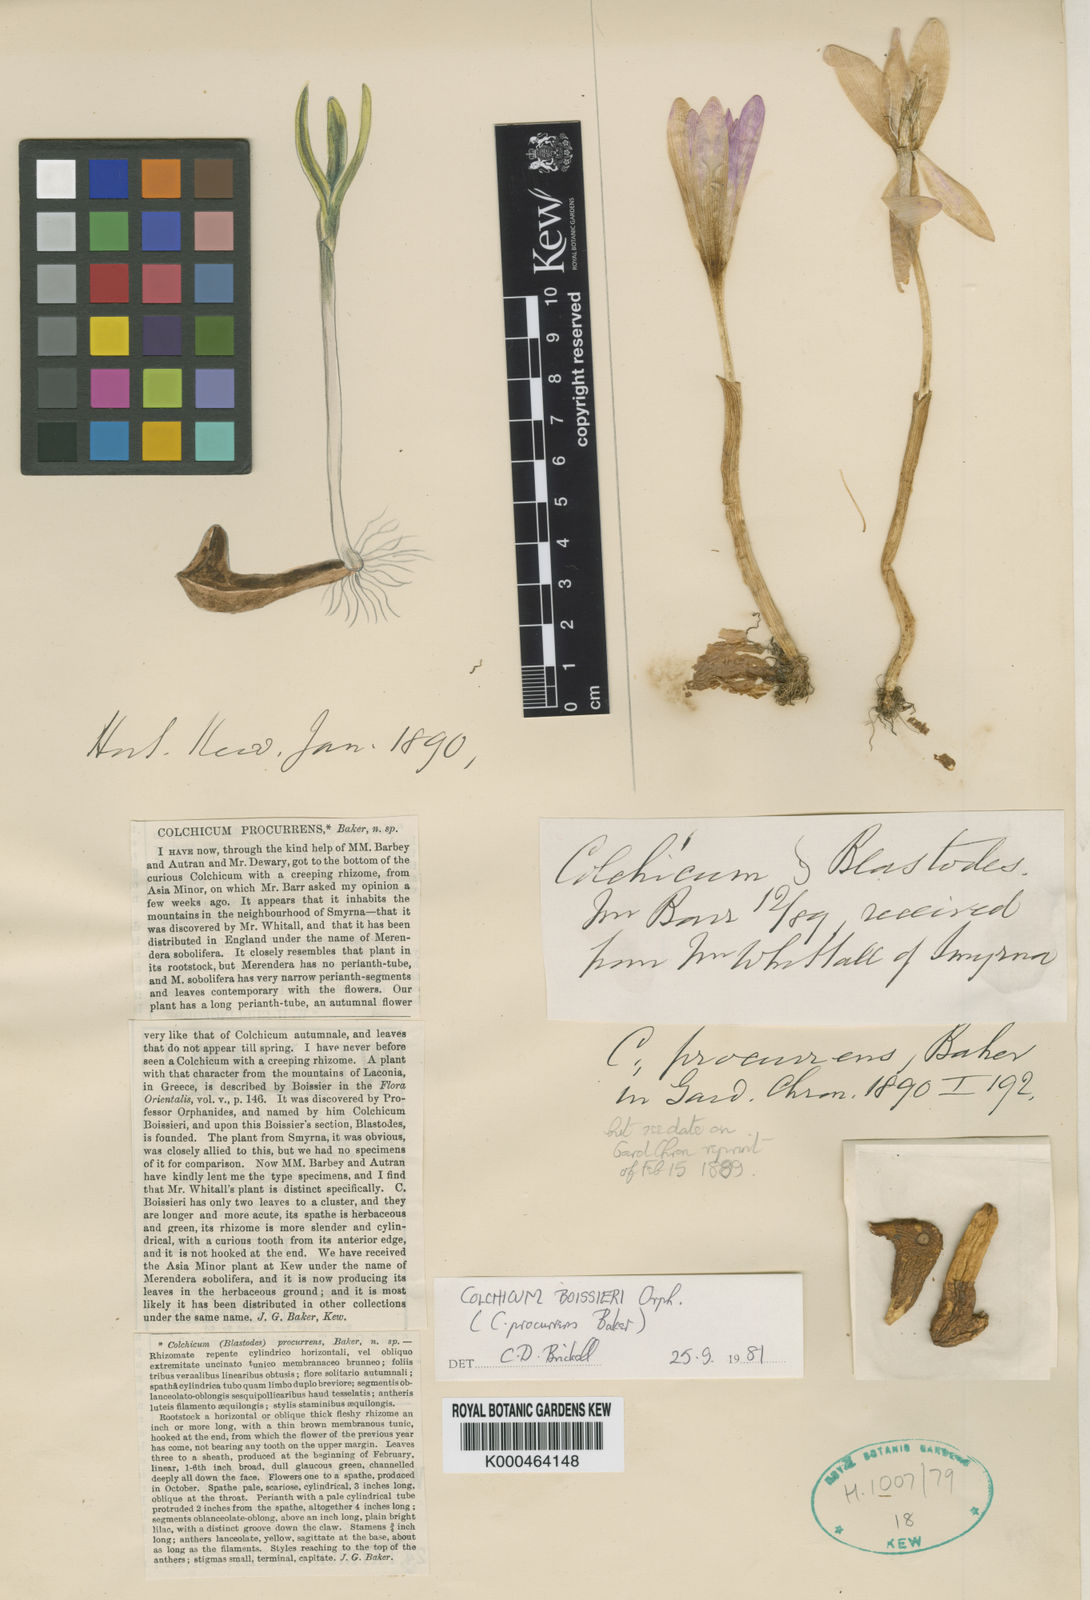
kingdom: Plantae
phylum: Tracheophyta
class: Liliopsida
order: Liliales
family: Colchicaceae
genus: Colchicum
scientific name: Colchicum boissieri
